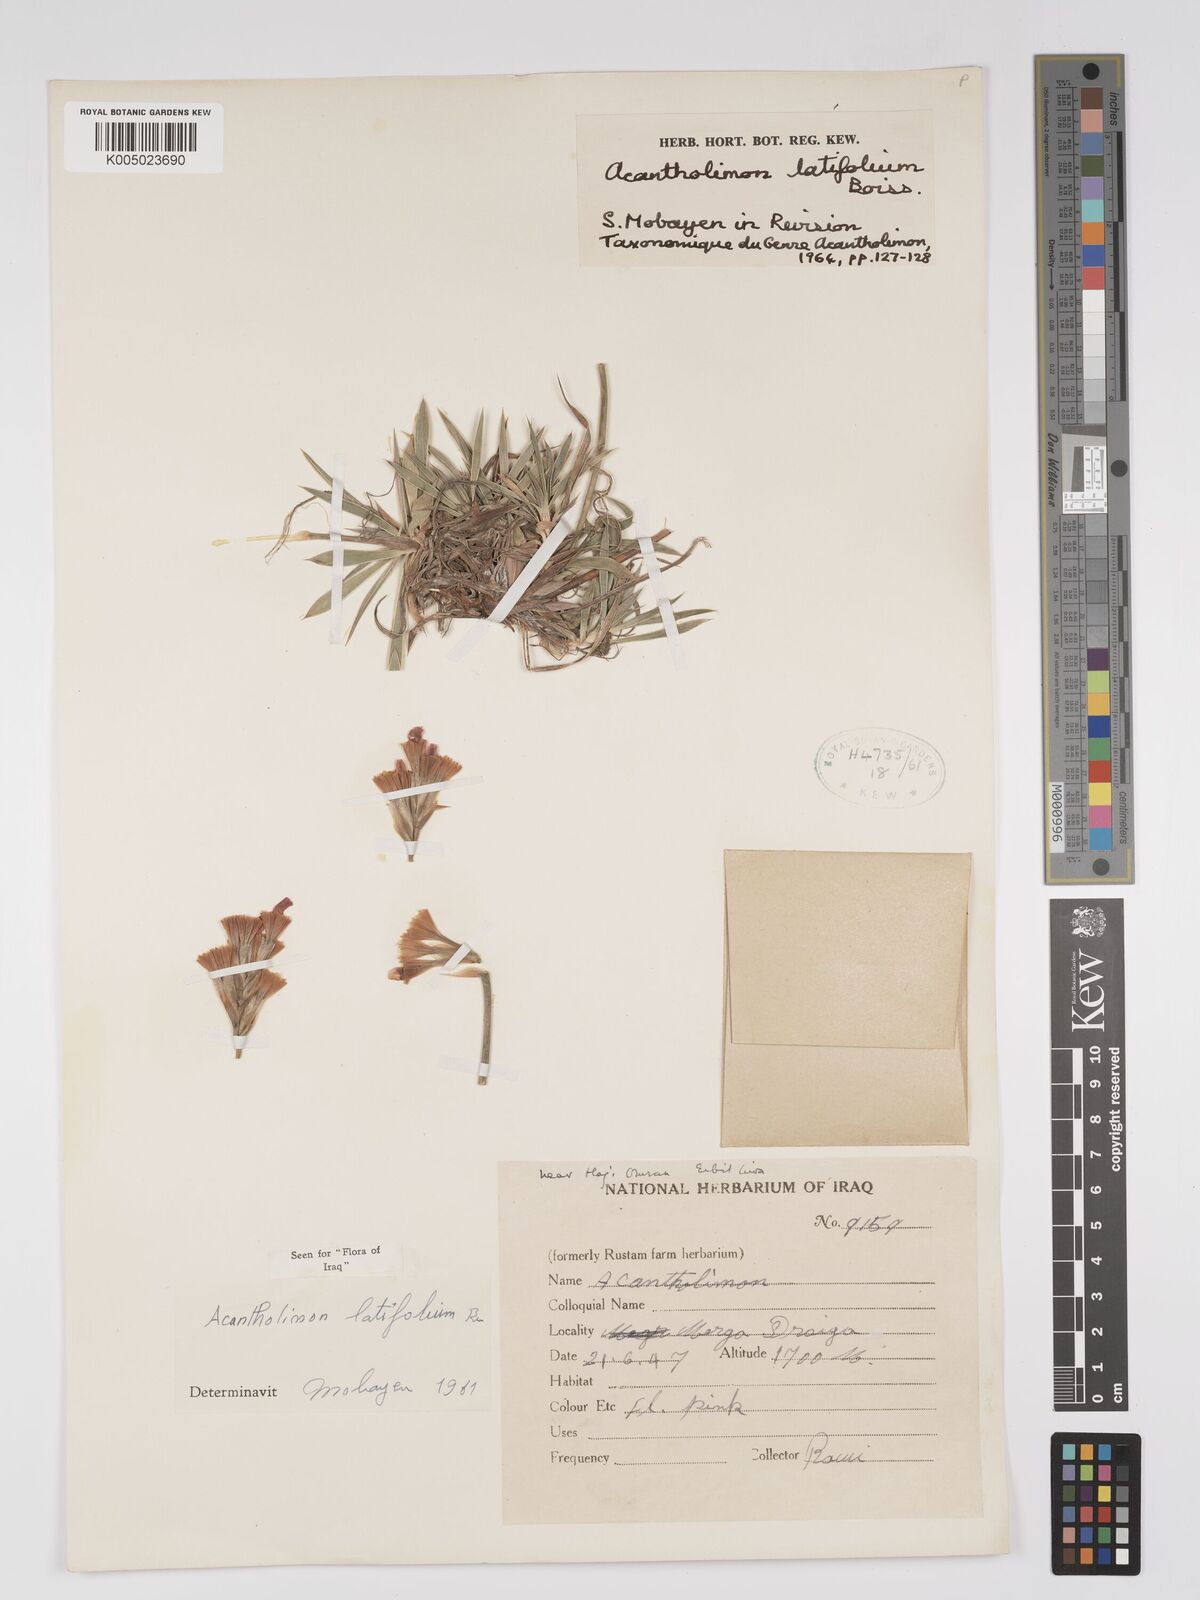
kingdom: Plantae
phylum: Tracheophyta
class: Magnoliopsida
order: Caryophyllales
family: Plumbaginaceae
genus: Acantholimon
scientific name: Acantholimon
